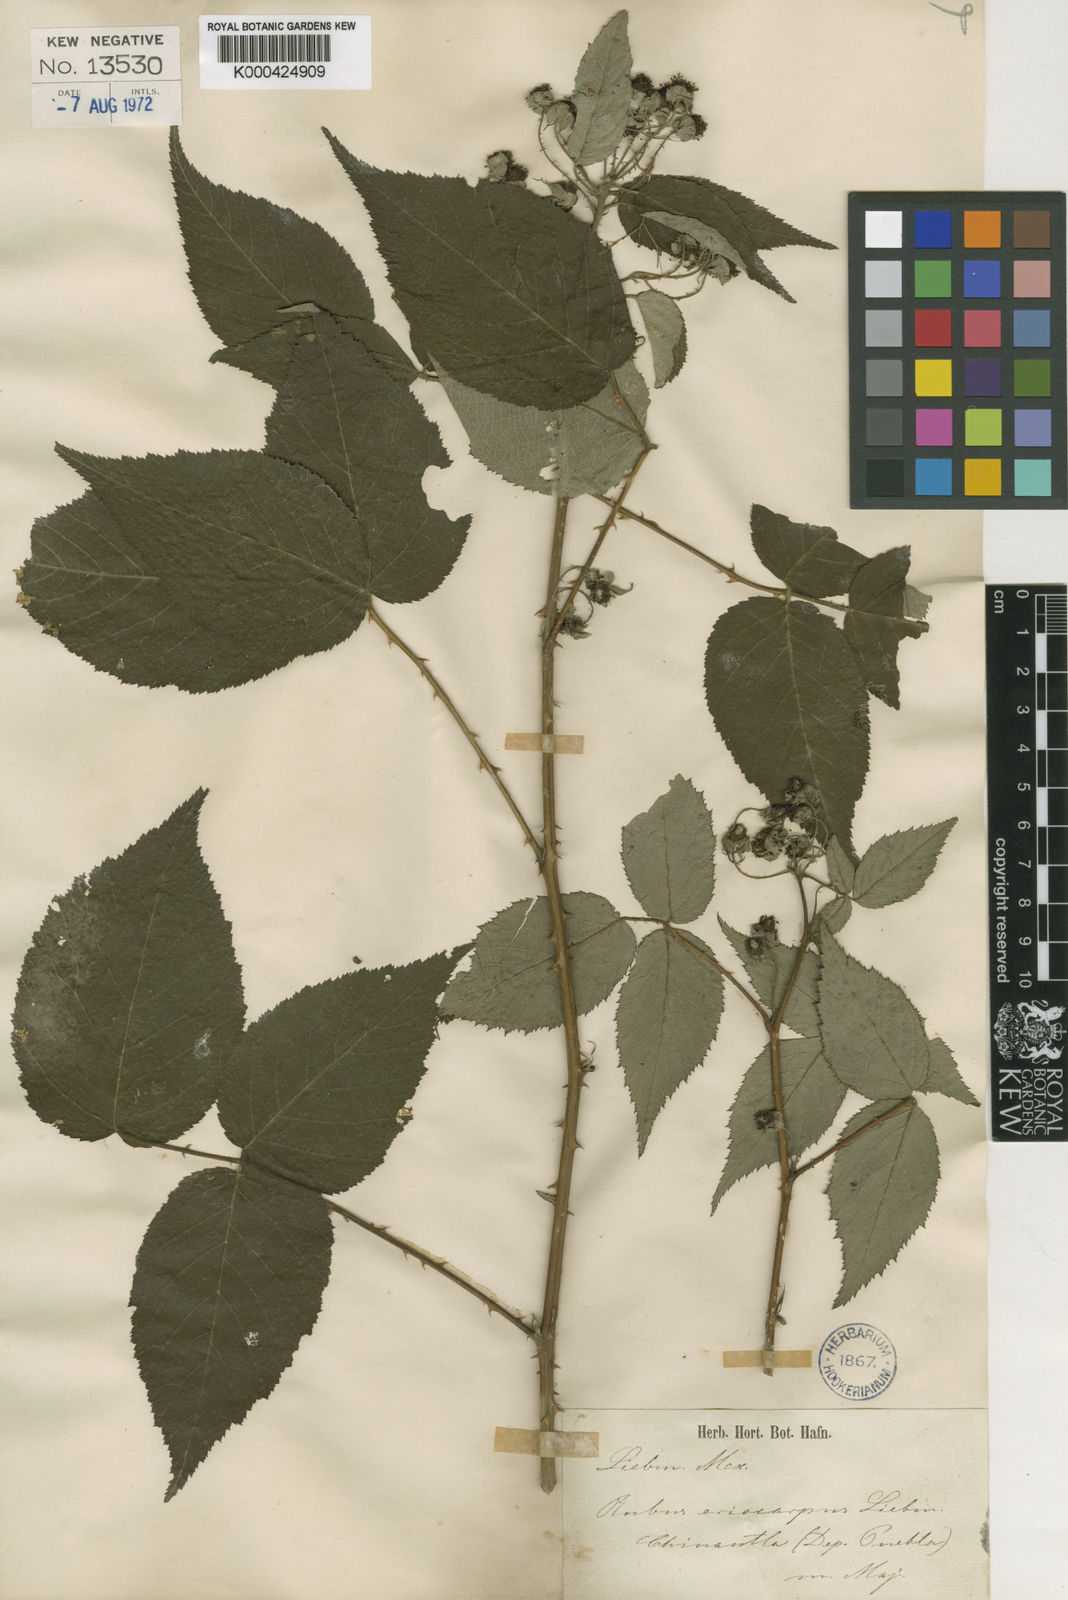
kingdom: Plantae
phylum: Tracheophyta
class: Magnoliopsida
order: Rosales
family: Rosaceae
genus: Rubus
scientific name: Rubus eriocarpus
